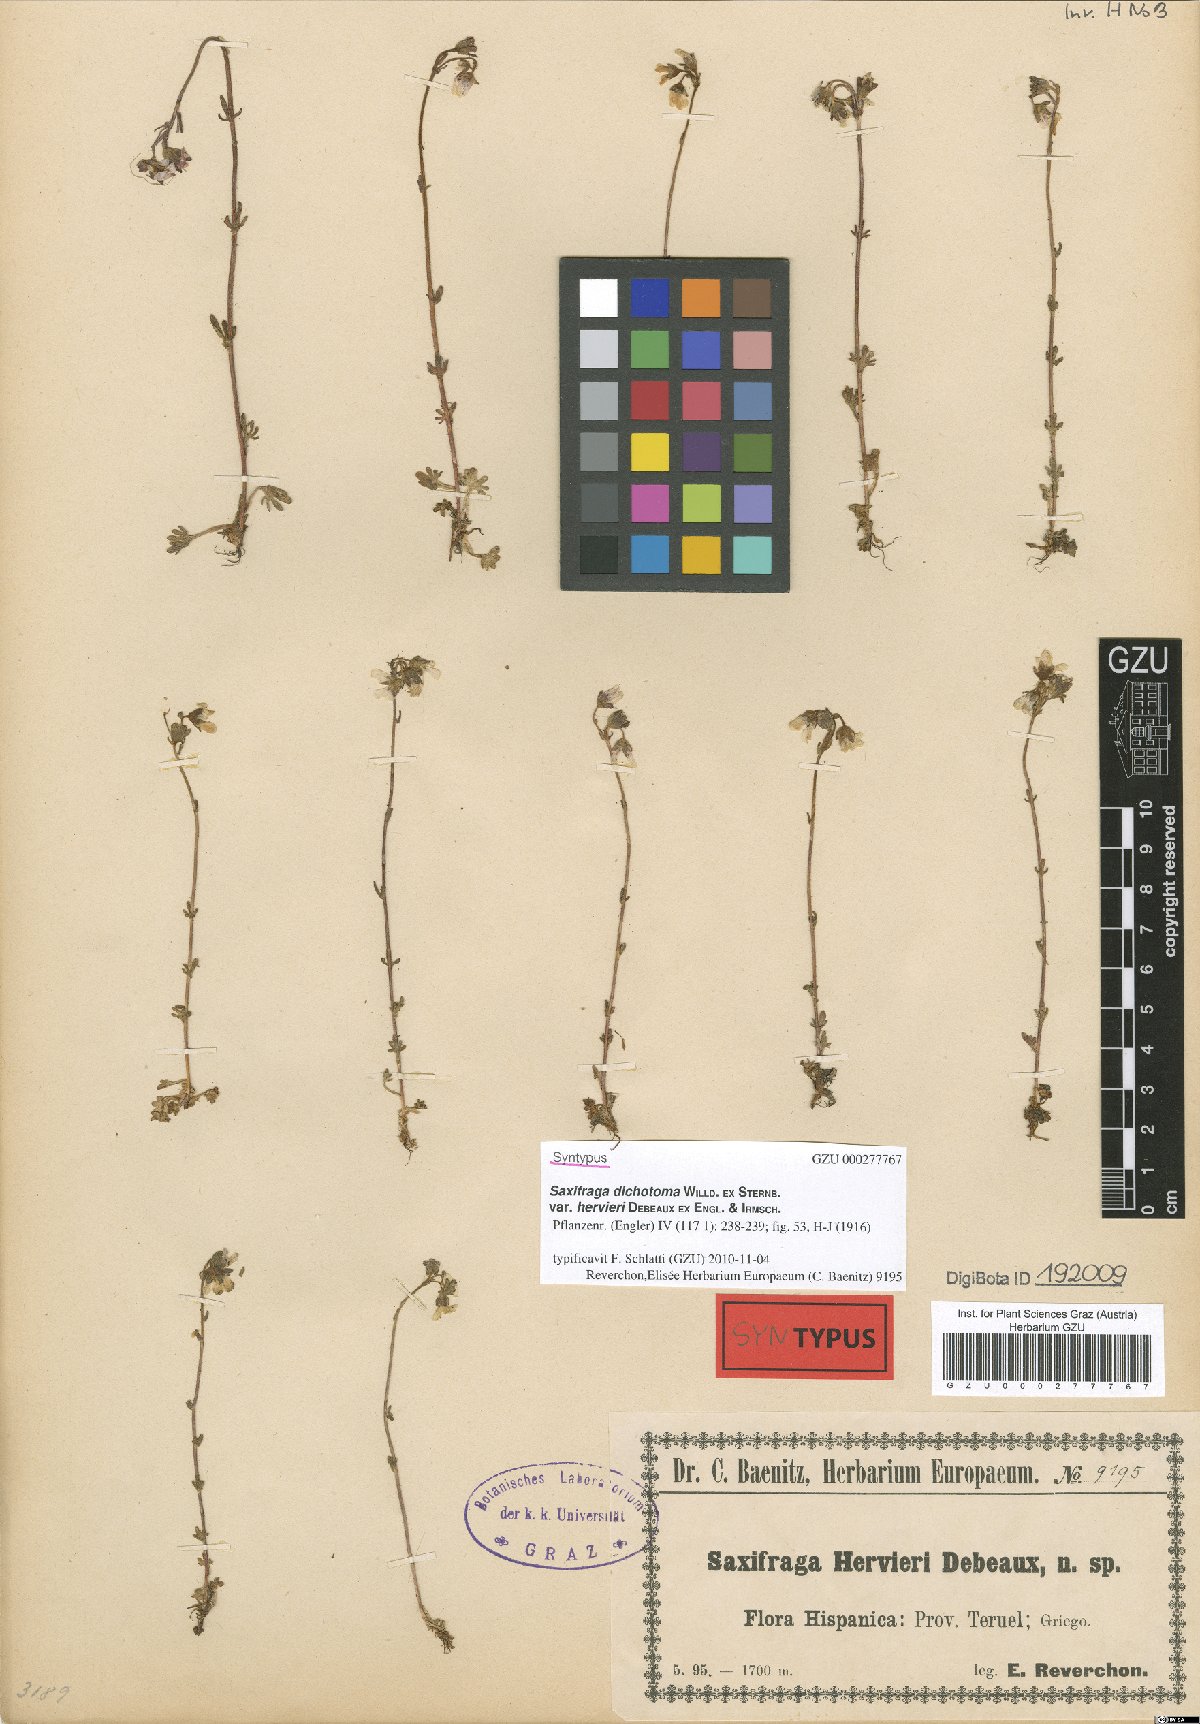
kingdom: Plantae
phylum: Tracheophyta
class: Magnoliopsida
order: Saxifragales
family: Saxifragaceae
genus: Saxifraga
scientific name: Saxifraga dichotoma
